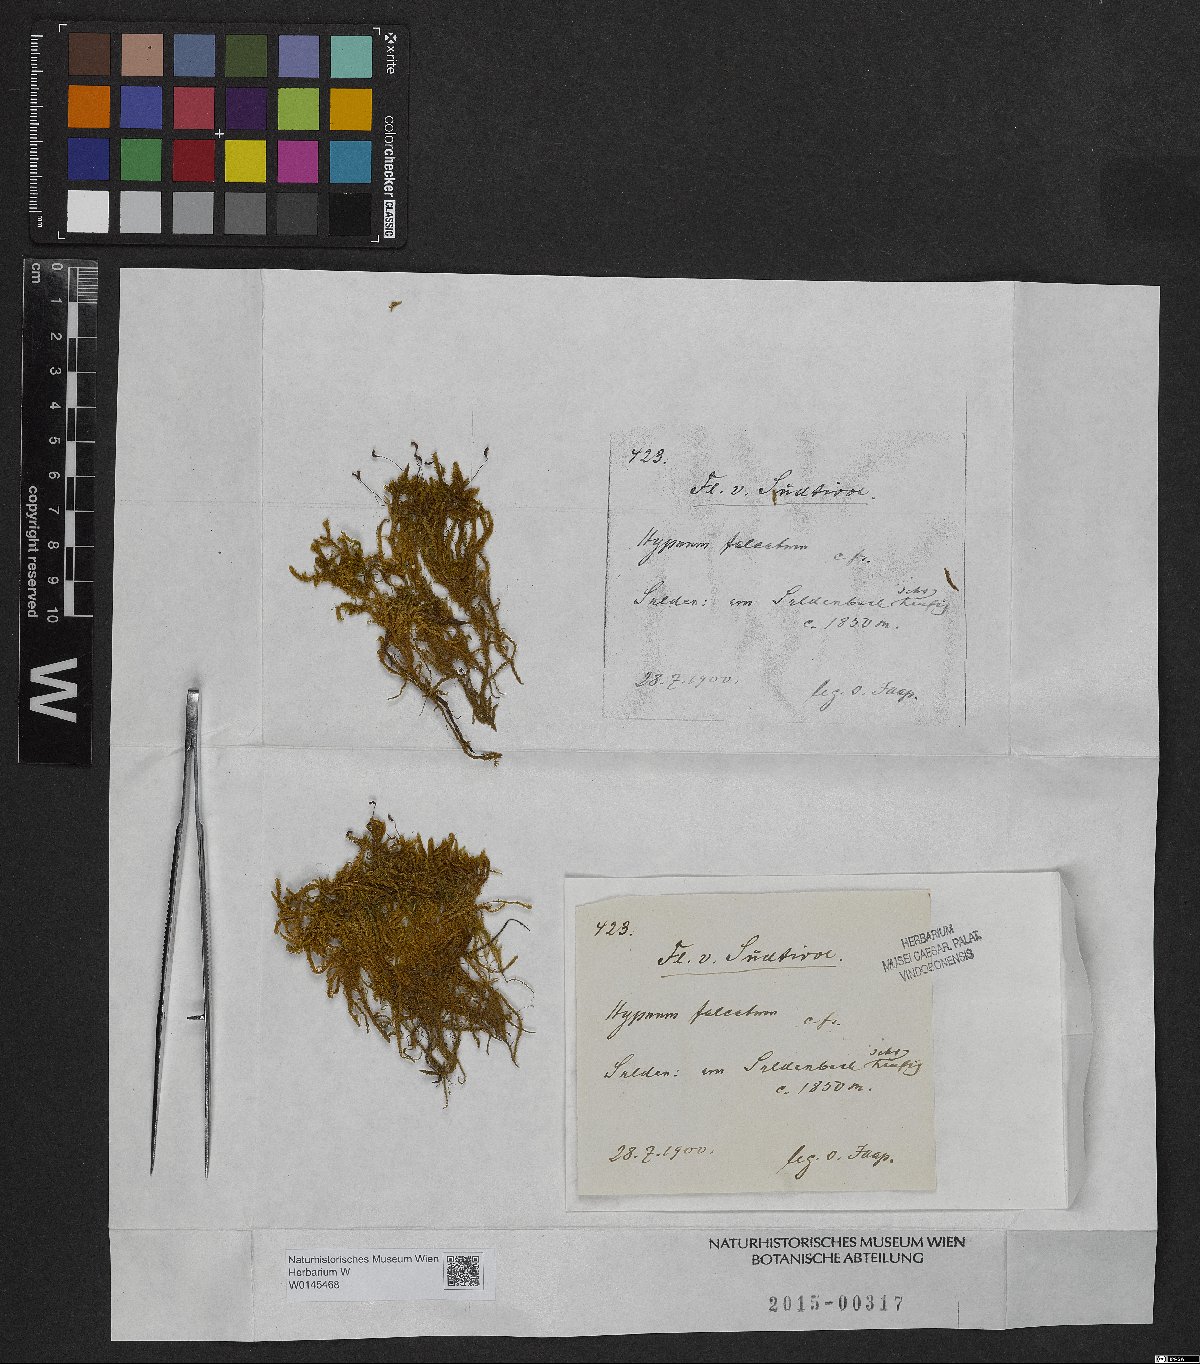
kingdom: Plantae
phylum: Bryophyta
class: Bryopsida
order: Hypnales
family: Amblystegiaceae
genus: Palustriella
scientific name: Palustriella falcata
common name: Curled hook-moss
